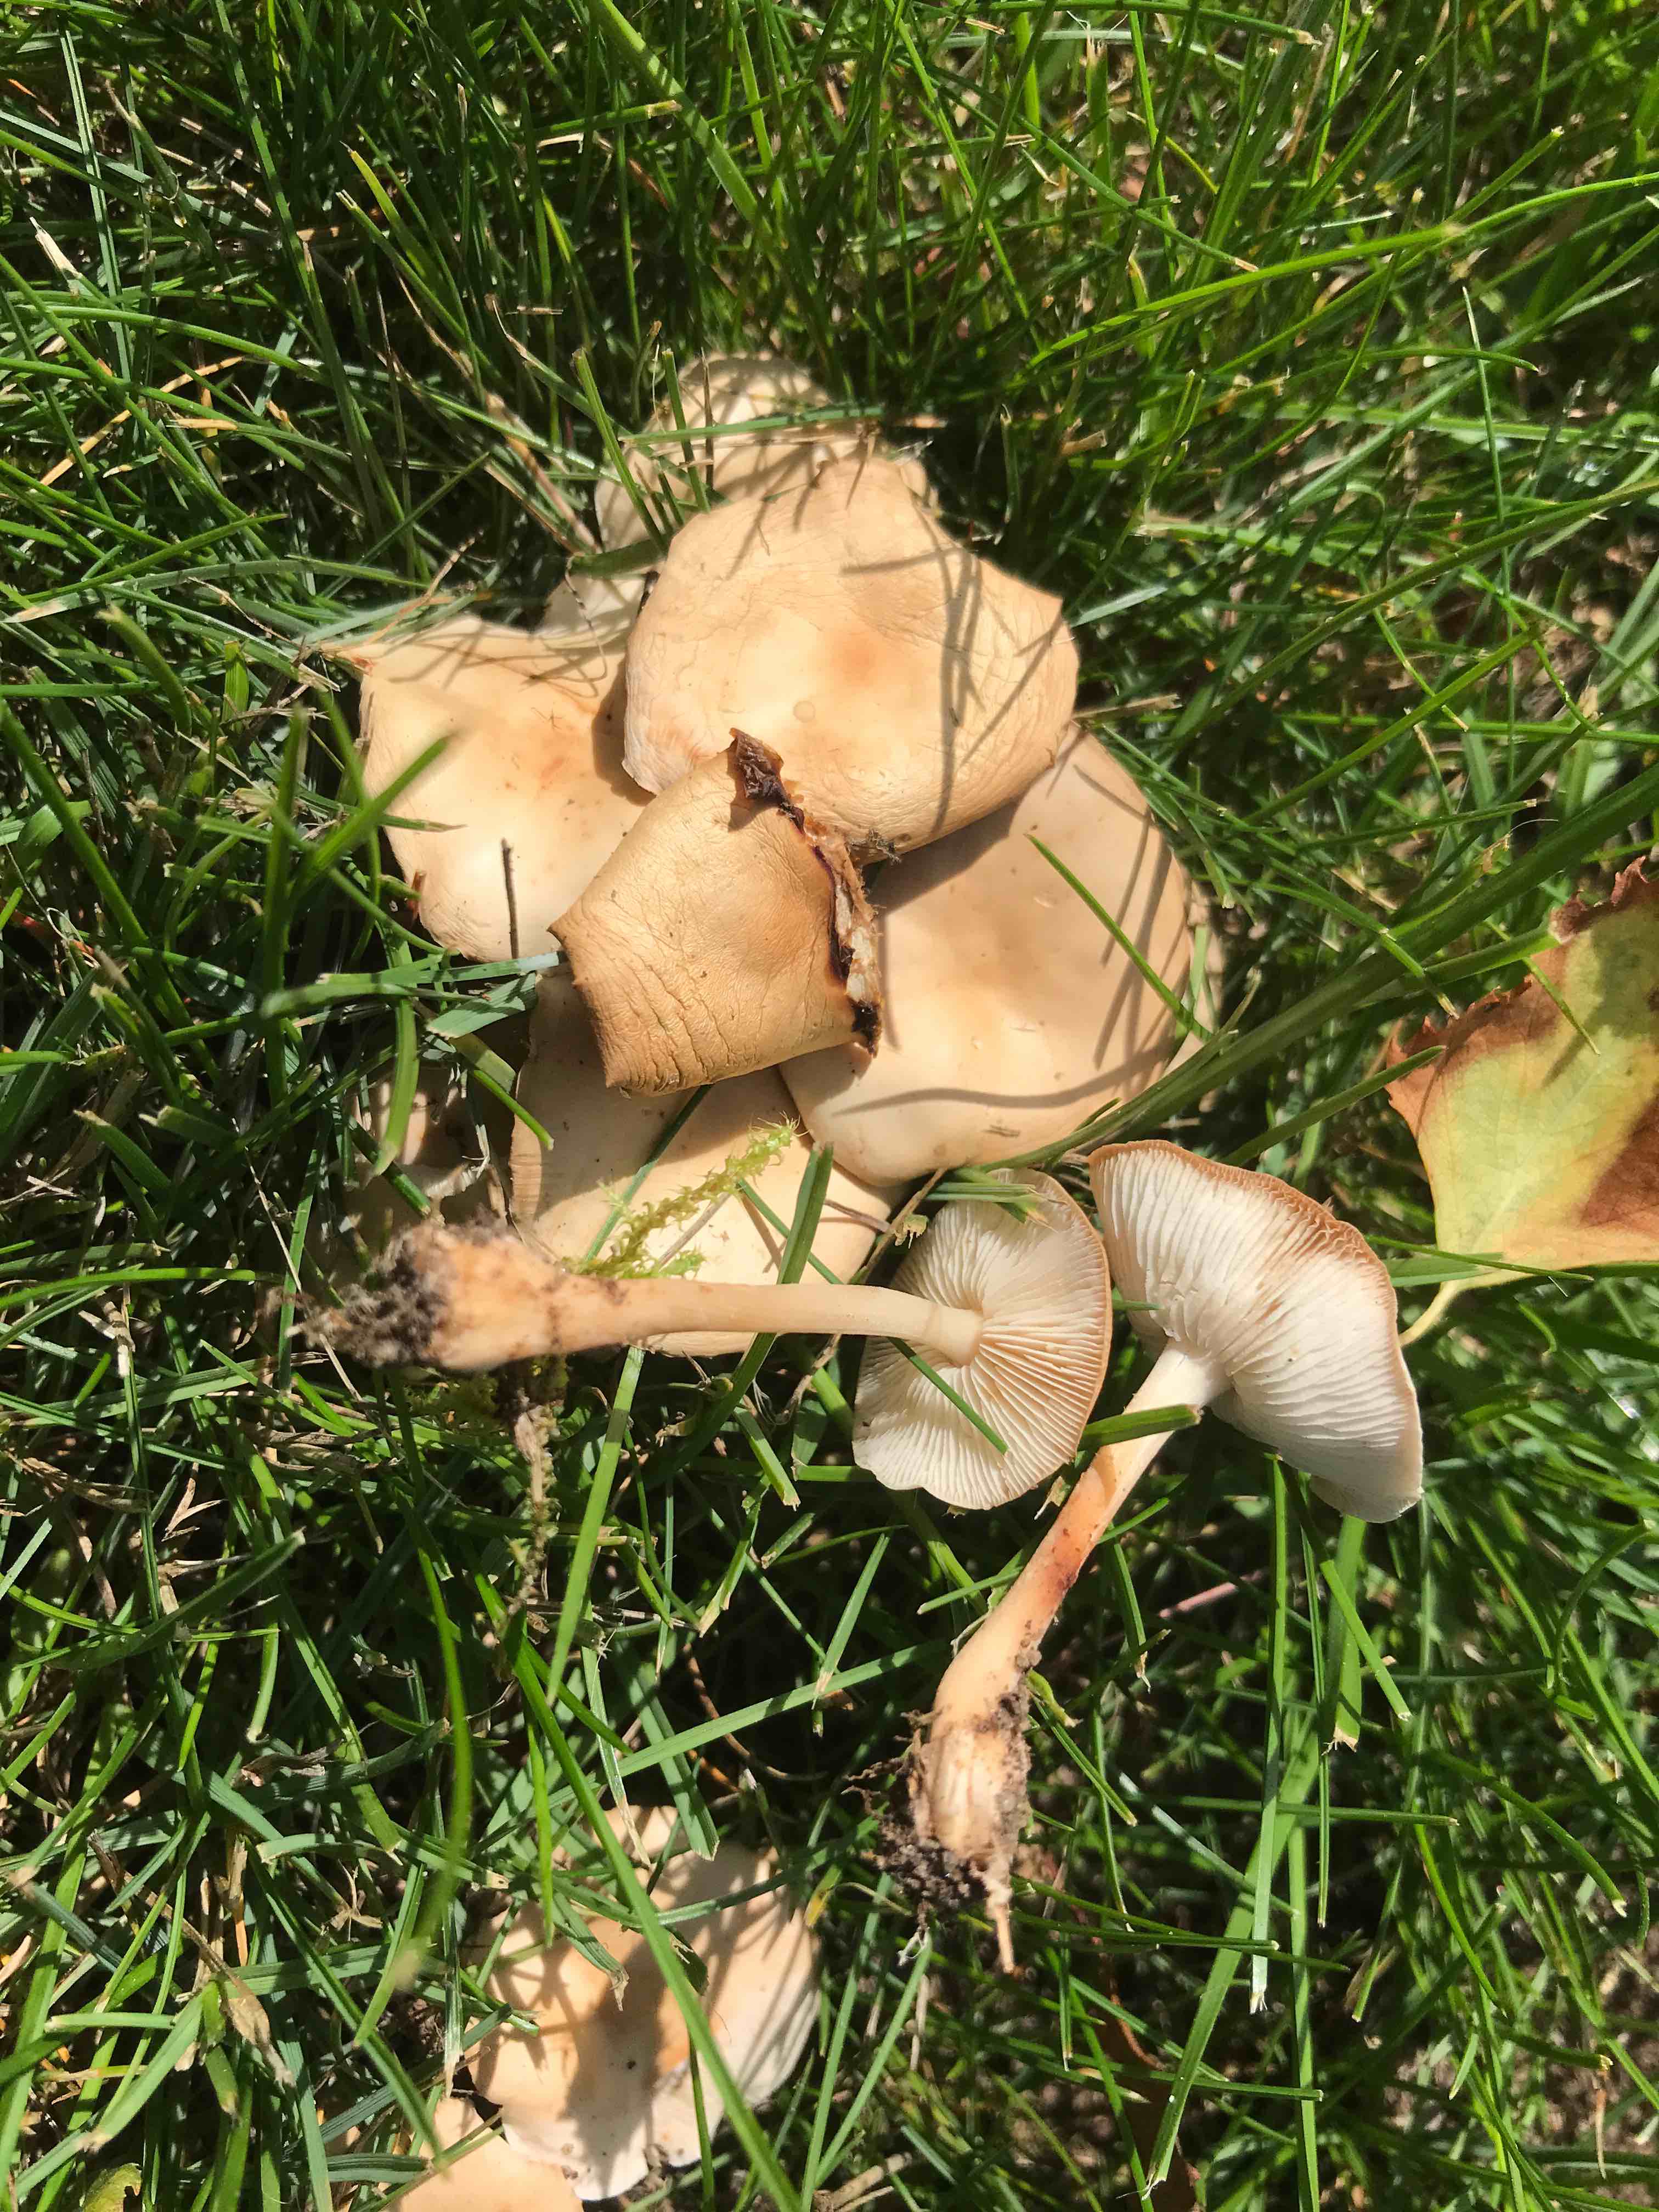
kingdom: Fungi
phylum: Basidiomycota
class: Agaricomycetes
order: Agaricales
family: Marasmiaceae
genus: Marasmius
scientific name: Marasmius oreades
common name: elledans-bruskhat
